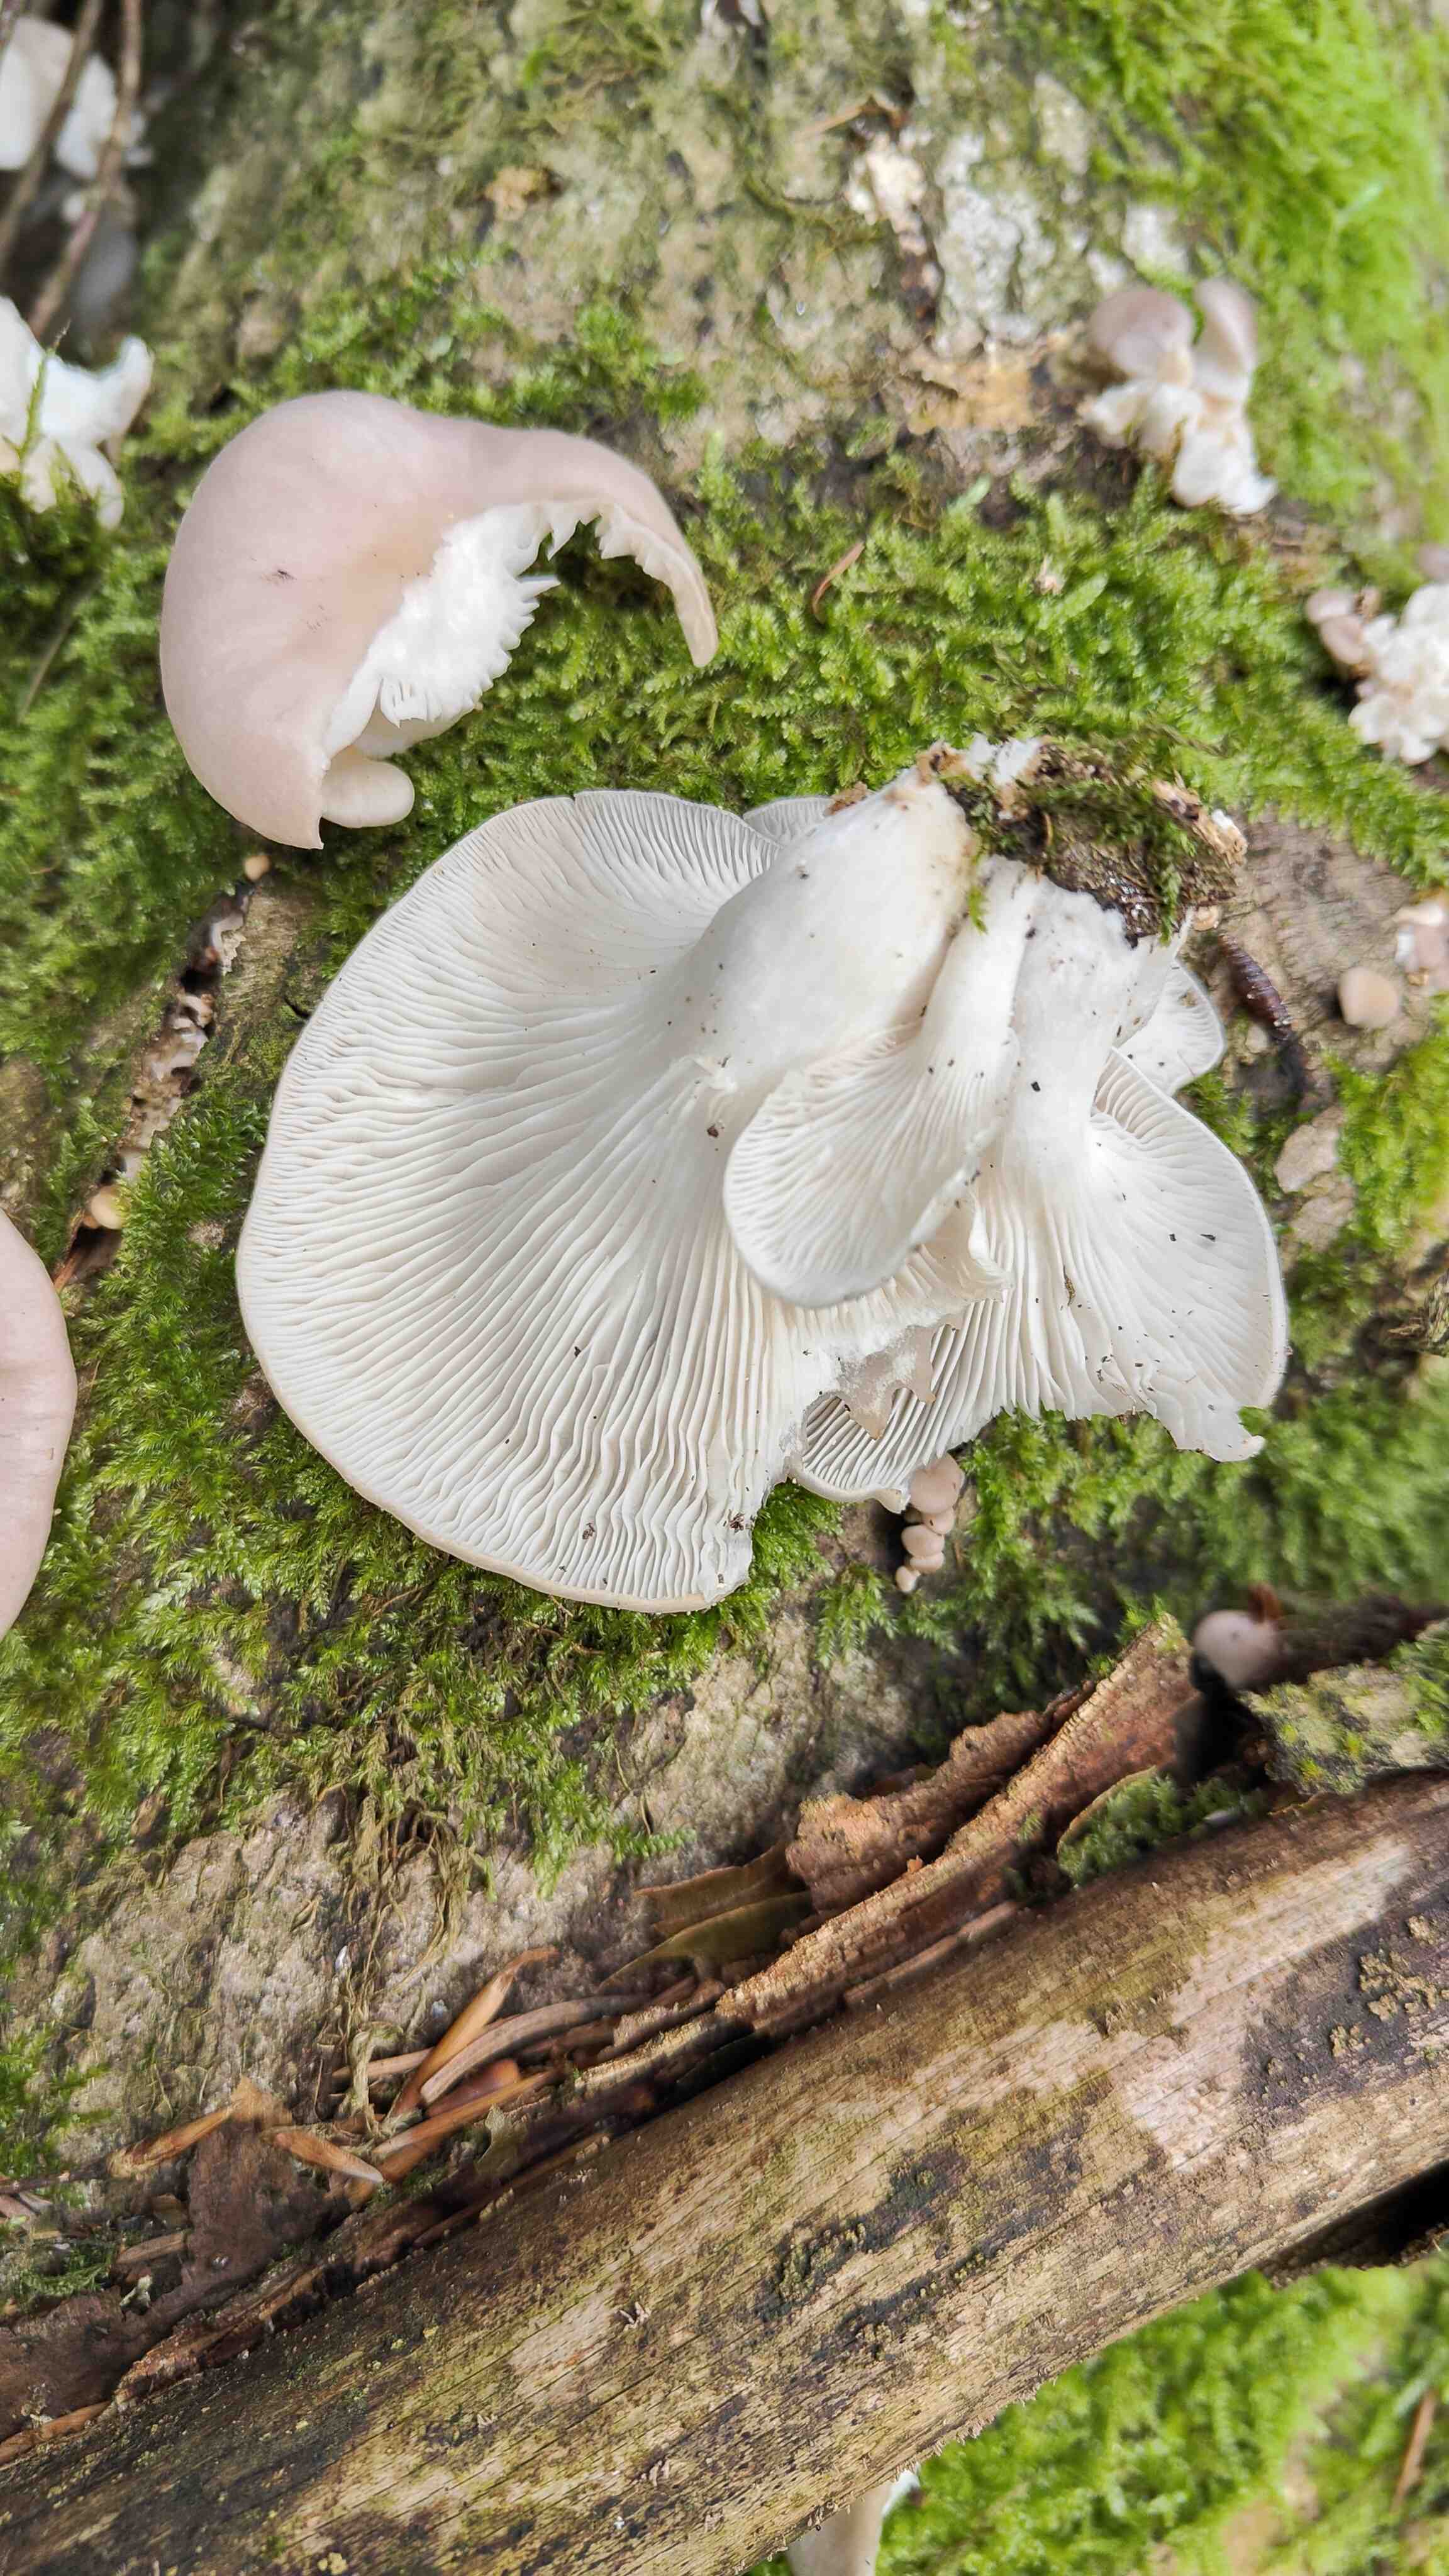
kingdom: Fungi
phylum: Basidiomycota
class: Agaricomycetes
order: Agaricales
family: Pleurotaceae
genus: Pleurotus
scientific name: Pleurotus pulmonarius
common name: sommer-østershat
